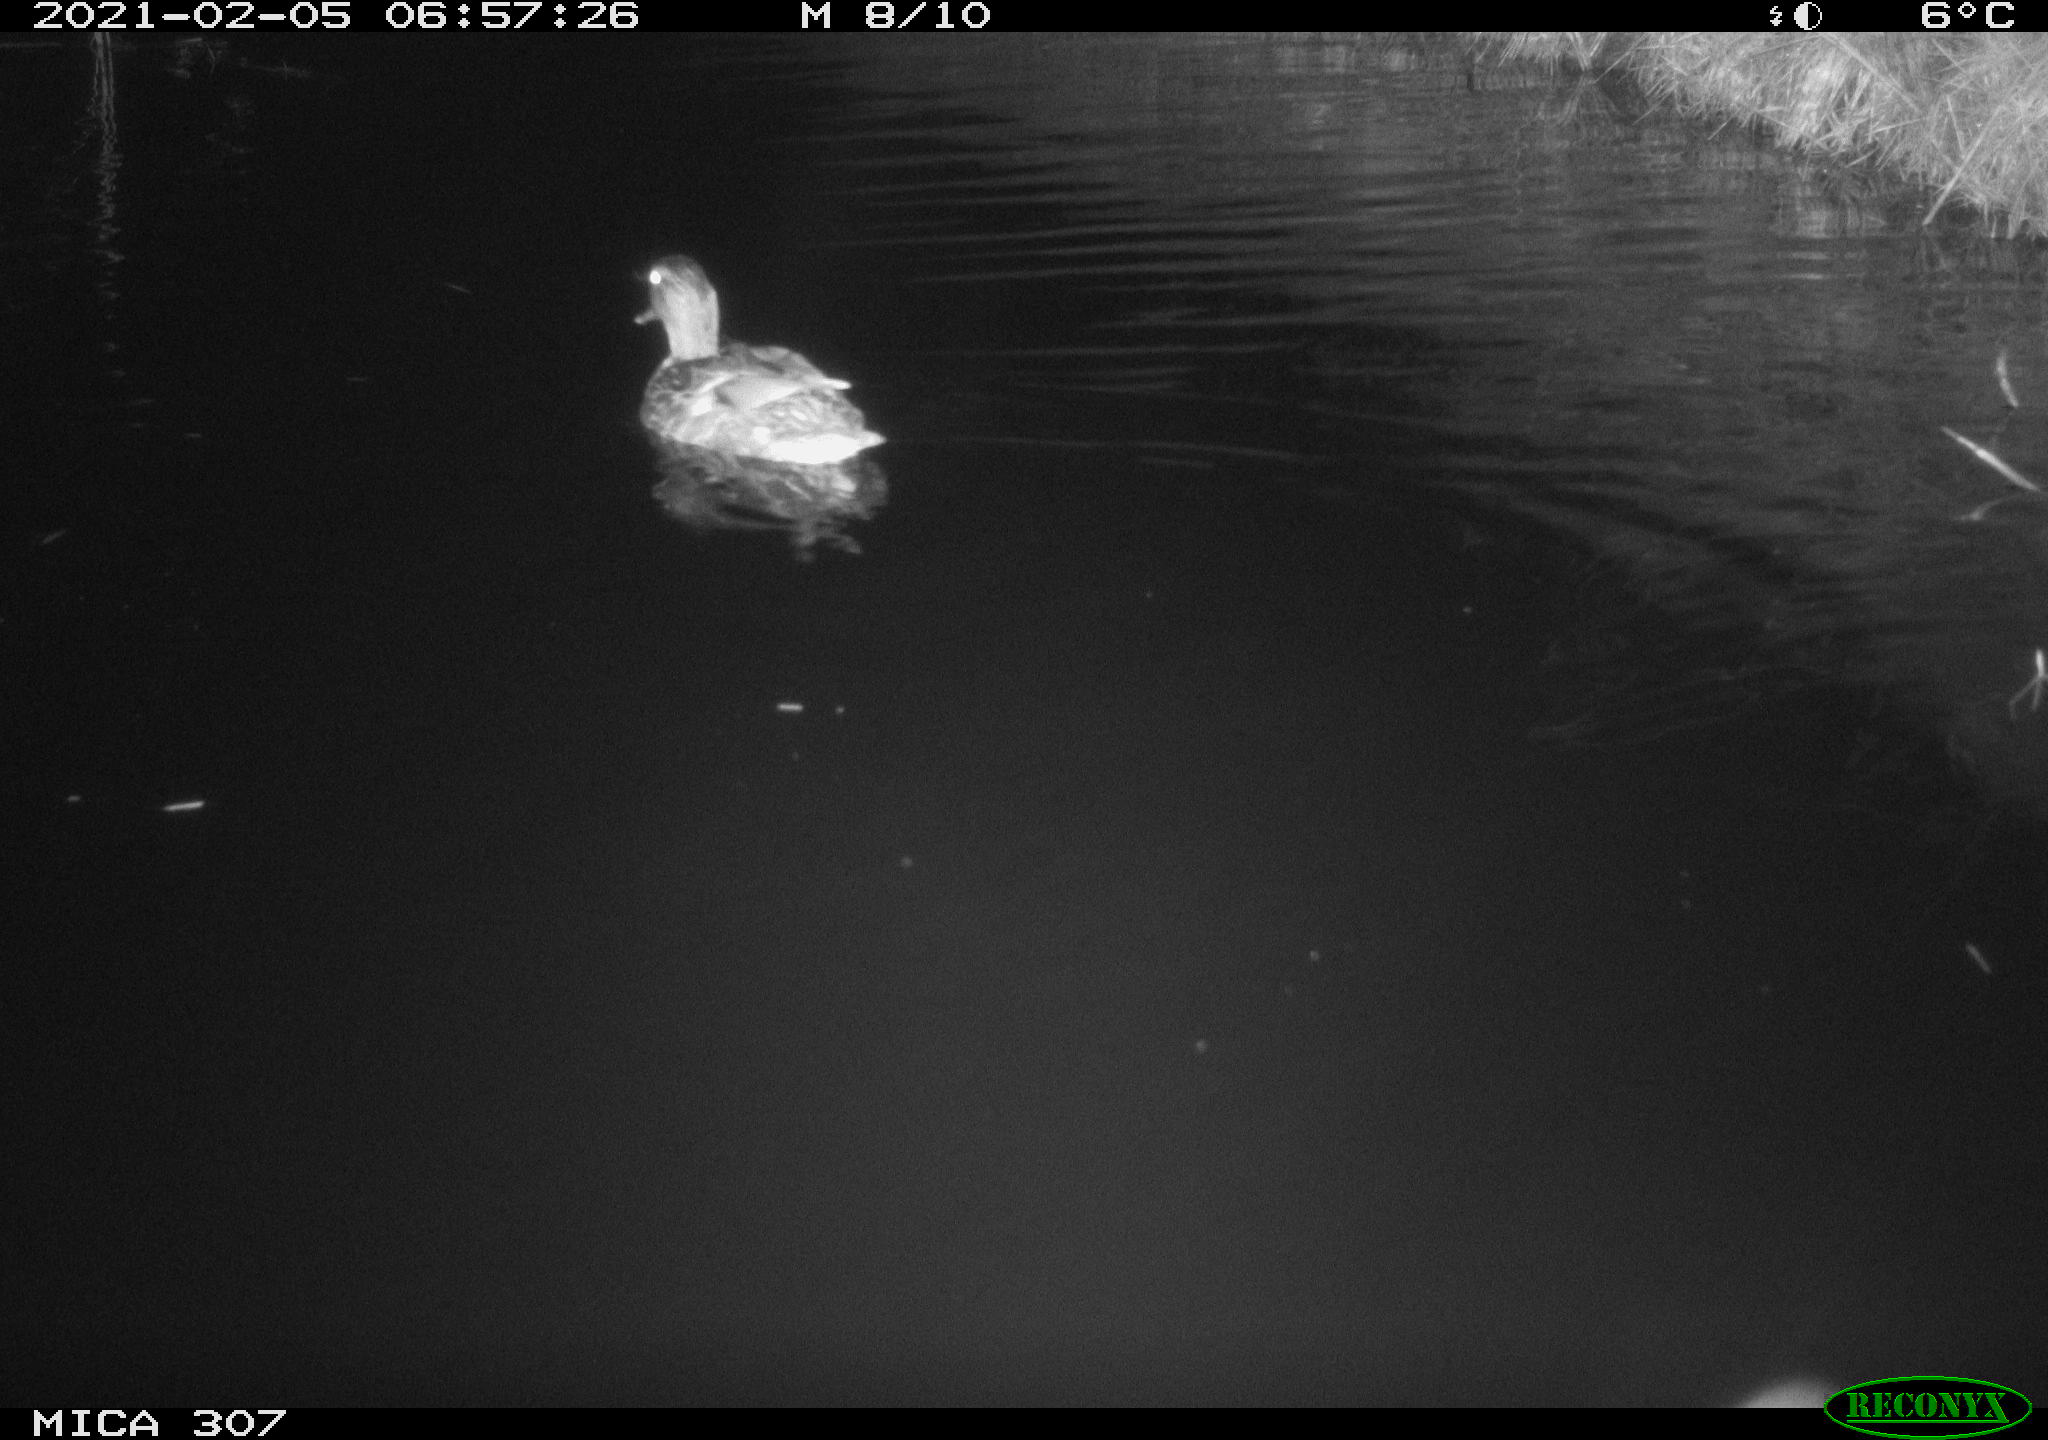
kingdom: Animalia
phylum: Chordata
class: Aves
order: Anseriformes
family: Anatidae
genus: Anas
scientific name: Anas platyrhynchos
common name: Mallard
